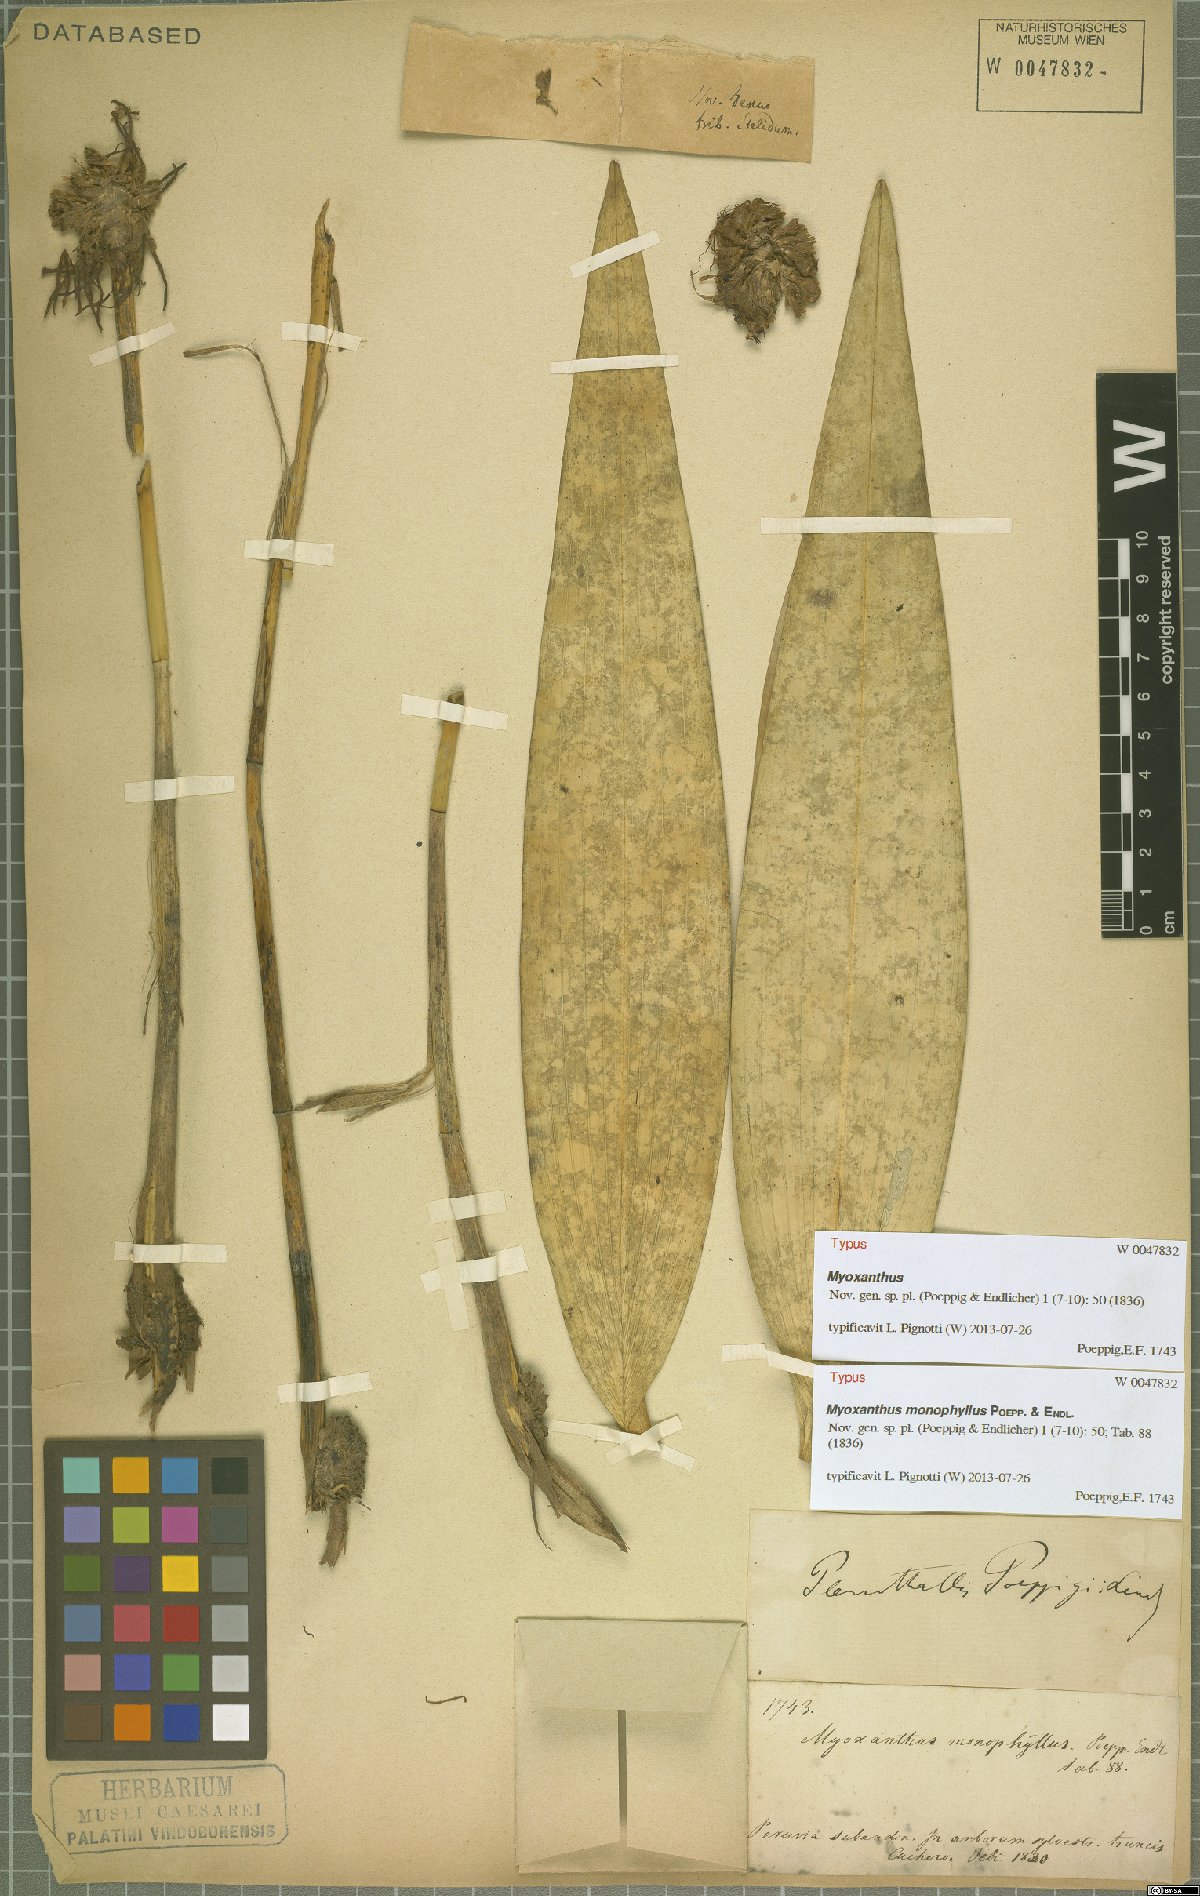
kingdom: Plantae
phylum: Tracheophyta
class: Liliopsida
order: Asparagales
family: Orchidaceae
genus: Myoxanthus
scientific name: Myoxanthus monophyllus
